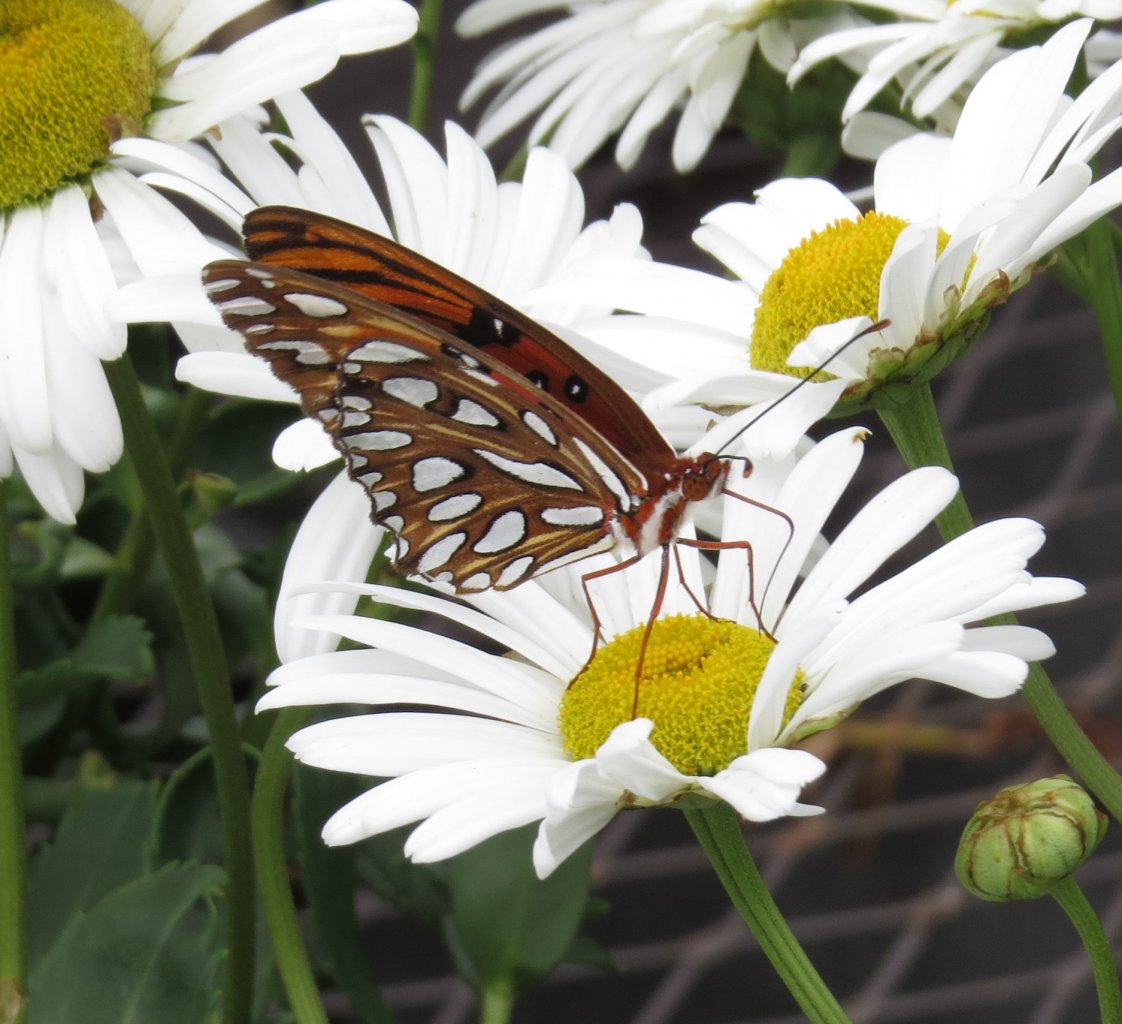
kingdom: Animalia
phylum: Arthropoda
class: Insecta
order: Lepidoptera
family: Nymphalidae
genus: Dione
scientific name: Dione vanillae
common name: Gulf Fritillary
